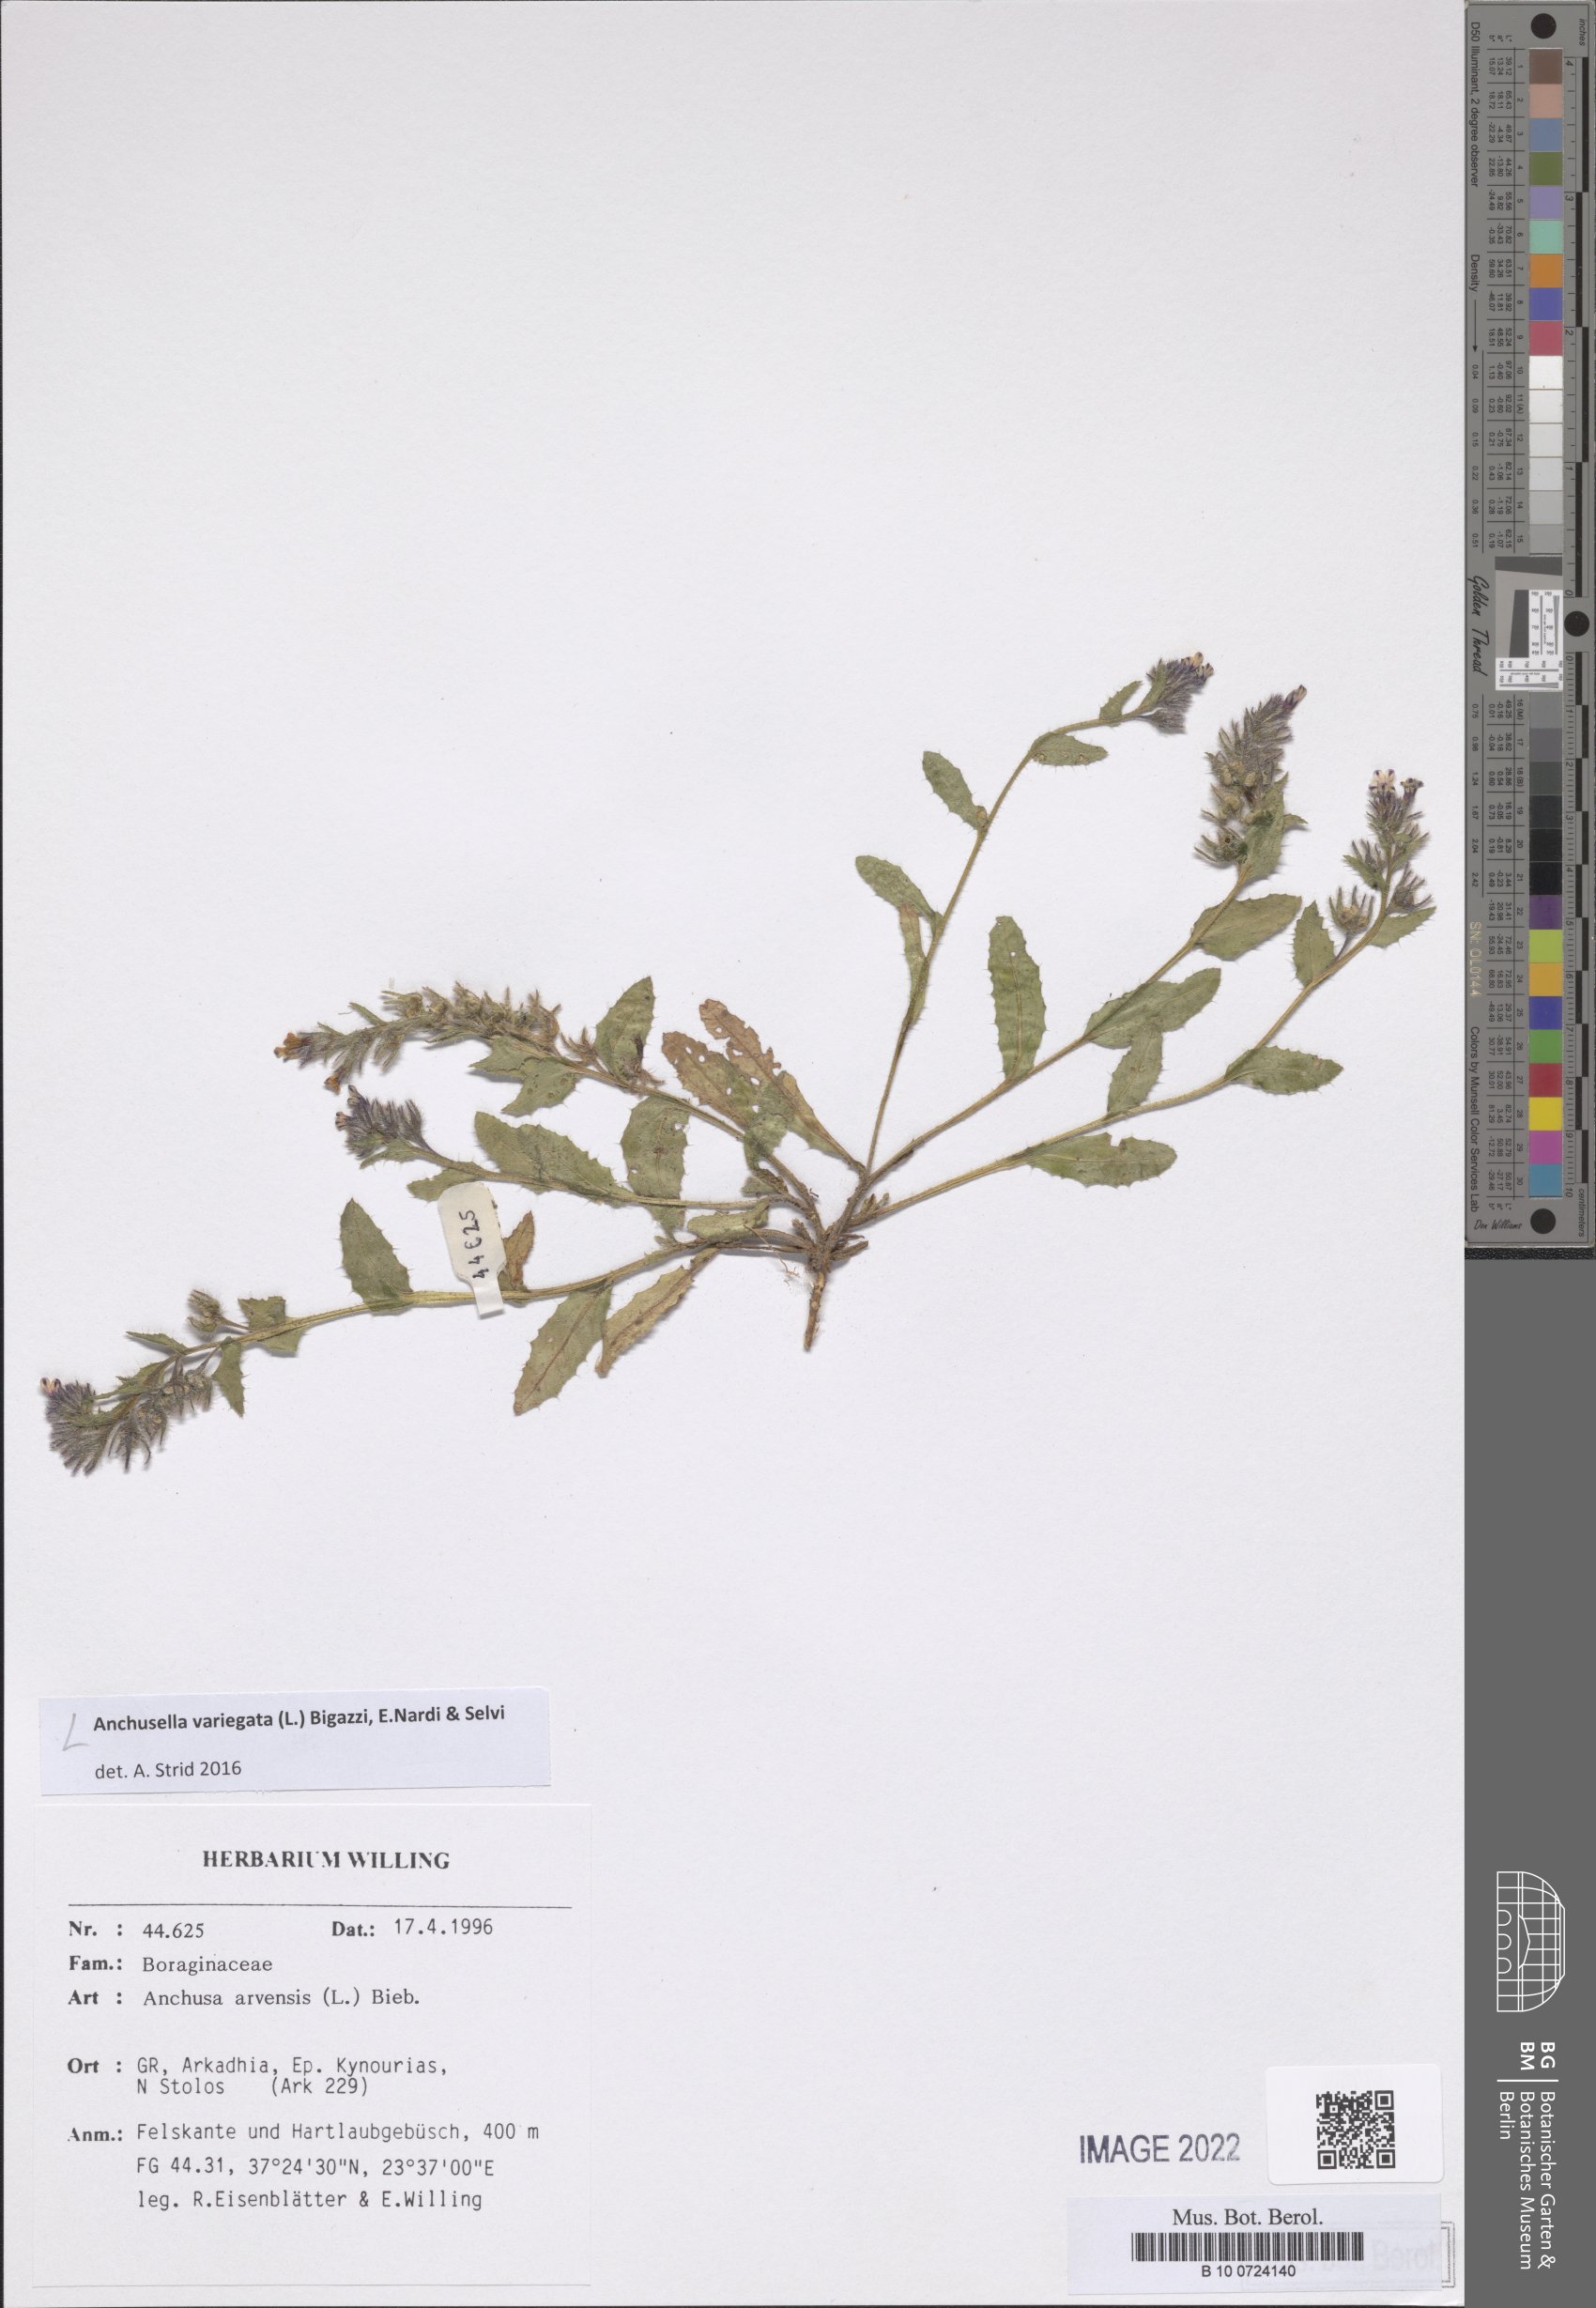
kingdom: Plantae
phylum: Tracheophyta
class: Magnoliopsida
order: Boraginales
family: Boraginaceae
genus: Anchusella
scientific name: Anchusella variegata
